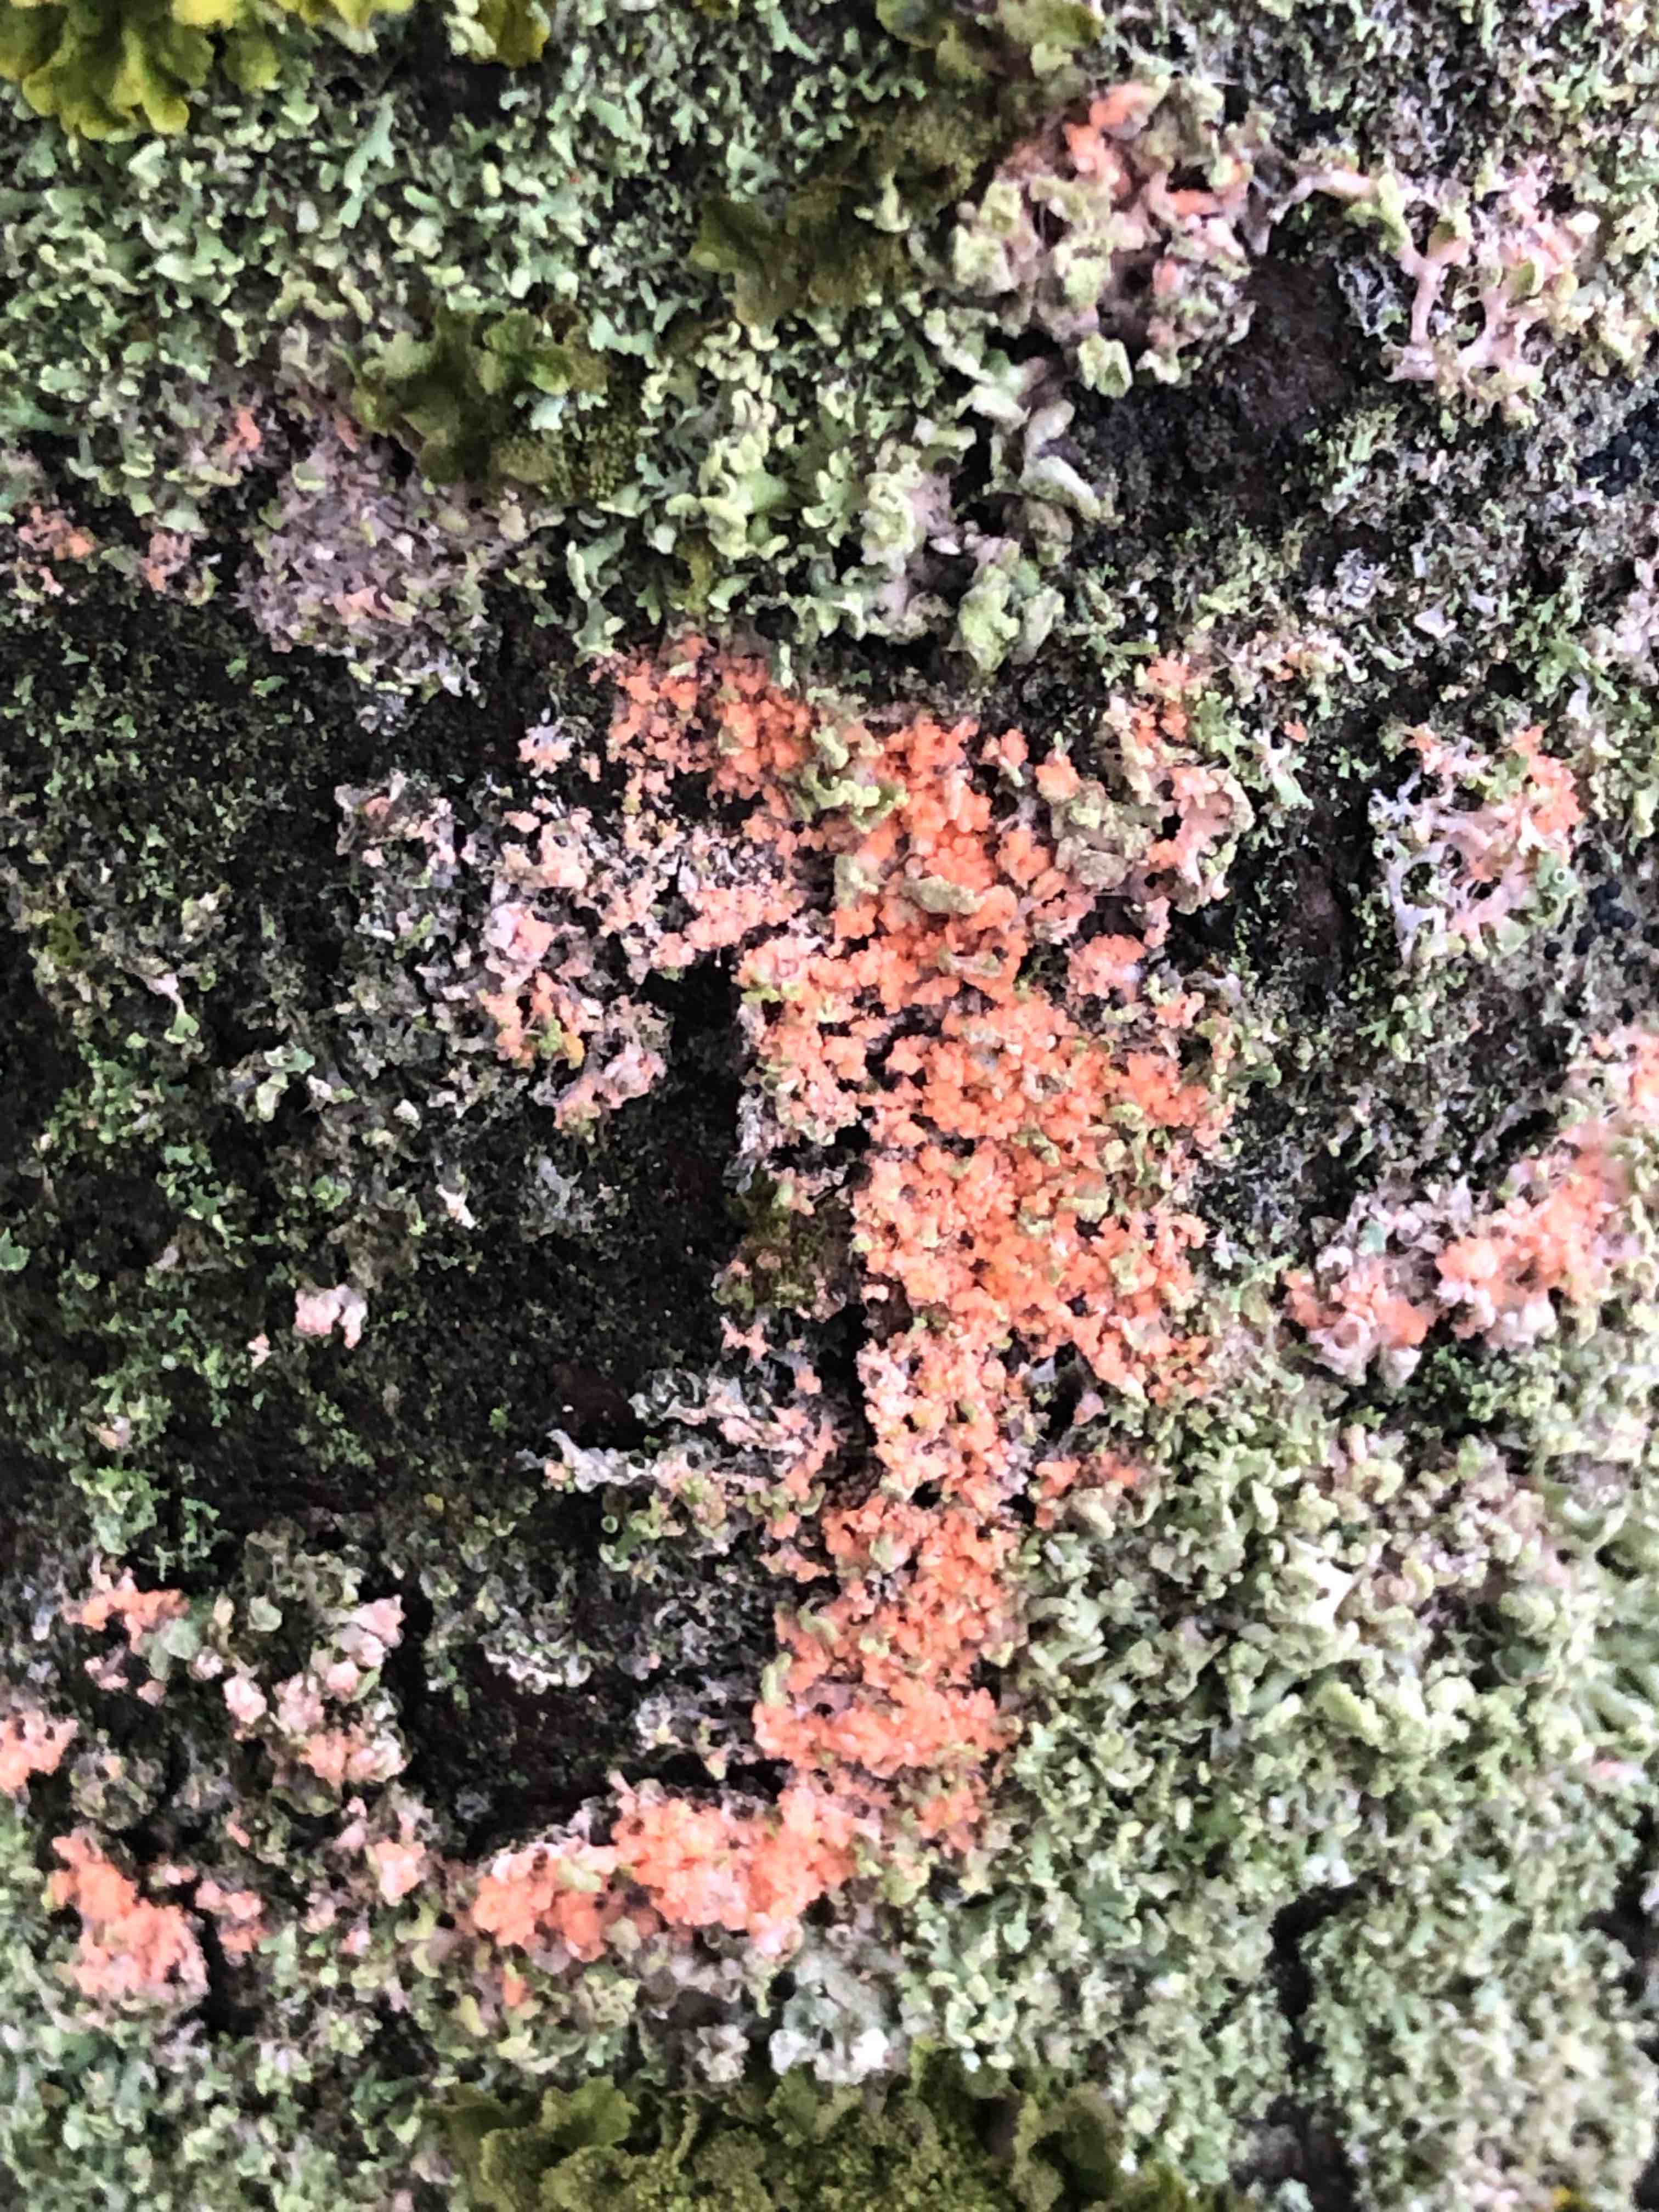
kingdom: Fungi
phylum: Basidiomycota
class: Agaricomycetes
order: Corticiales
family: Corticiaceae
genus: Erythricium
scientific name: Erythricium aurantiacum
